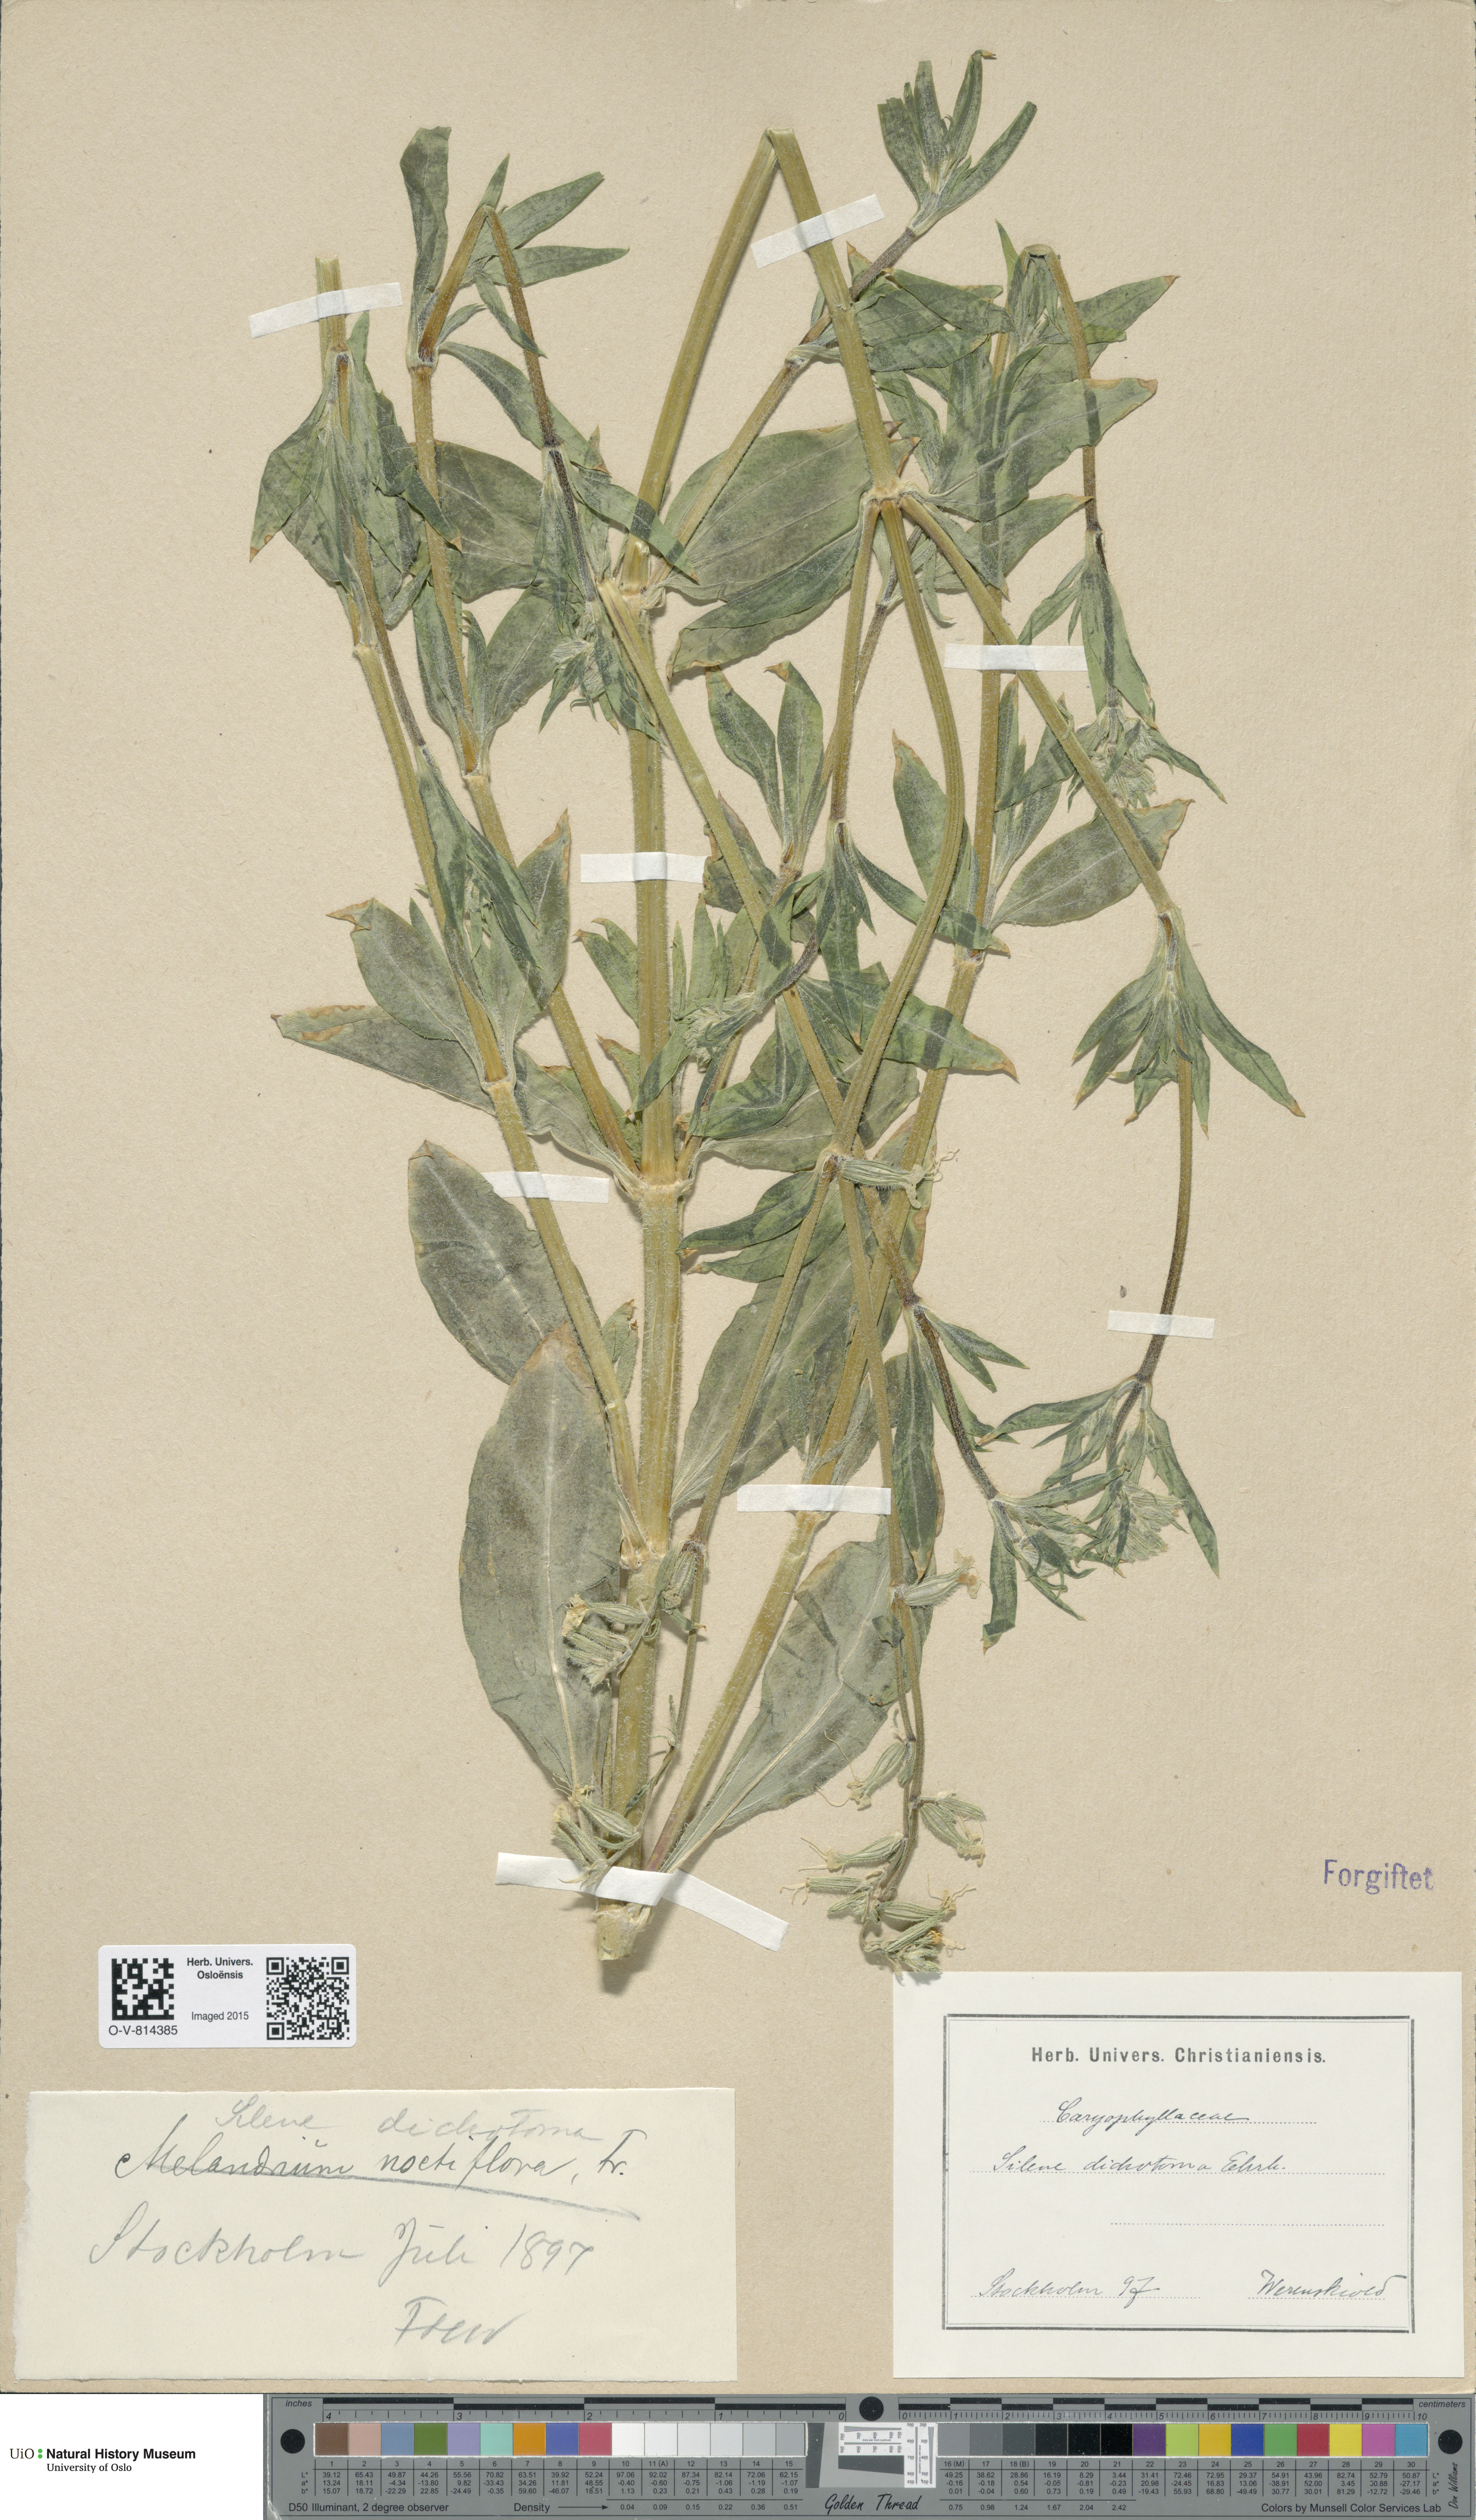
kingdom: Plantae
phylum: Tracheophyta
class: Magnoliopsida
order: Caryophyllales
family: Caryophyllaceae
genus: Silene
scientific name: Silene dichotoma
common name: Forked catchfly
